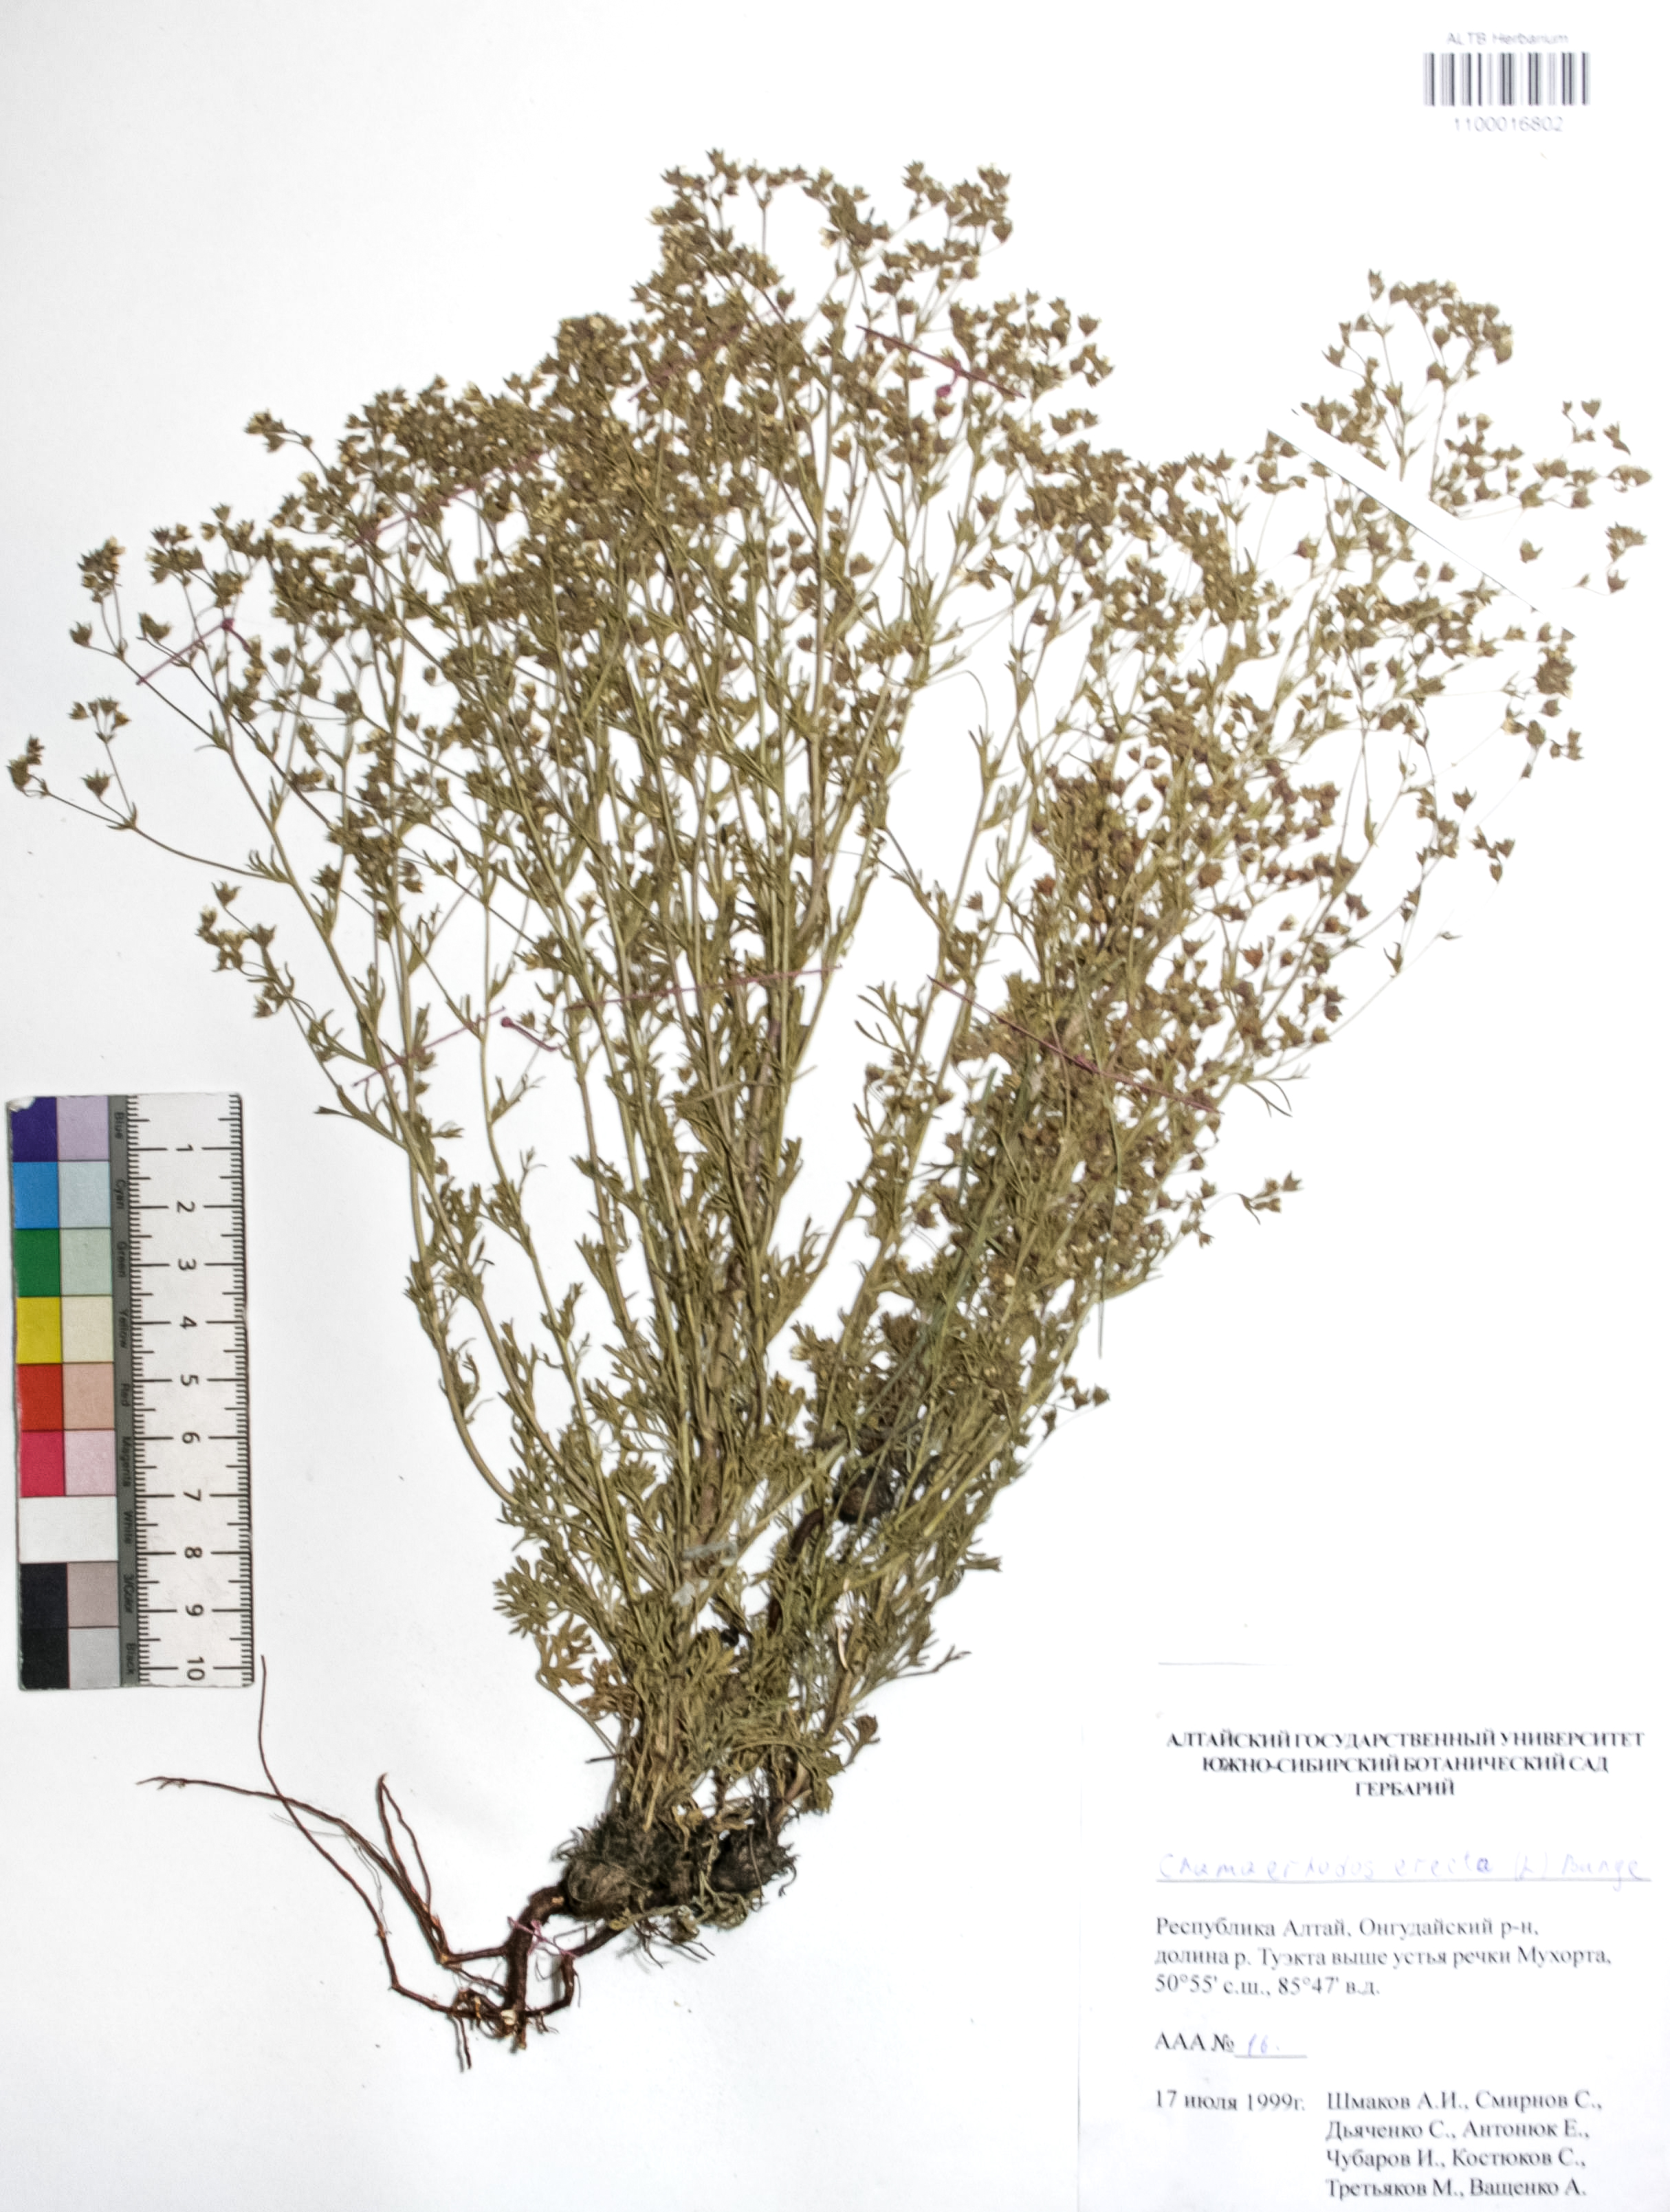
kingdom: Plantae
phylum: Tracheophyta
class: Magnoliopsida
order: Rosales
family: Rosaceae
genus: Chamaerhodos
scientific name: Chamaerhodos erecta
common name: American chamaerhodos
